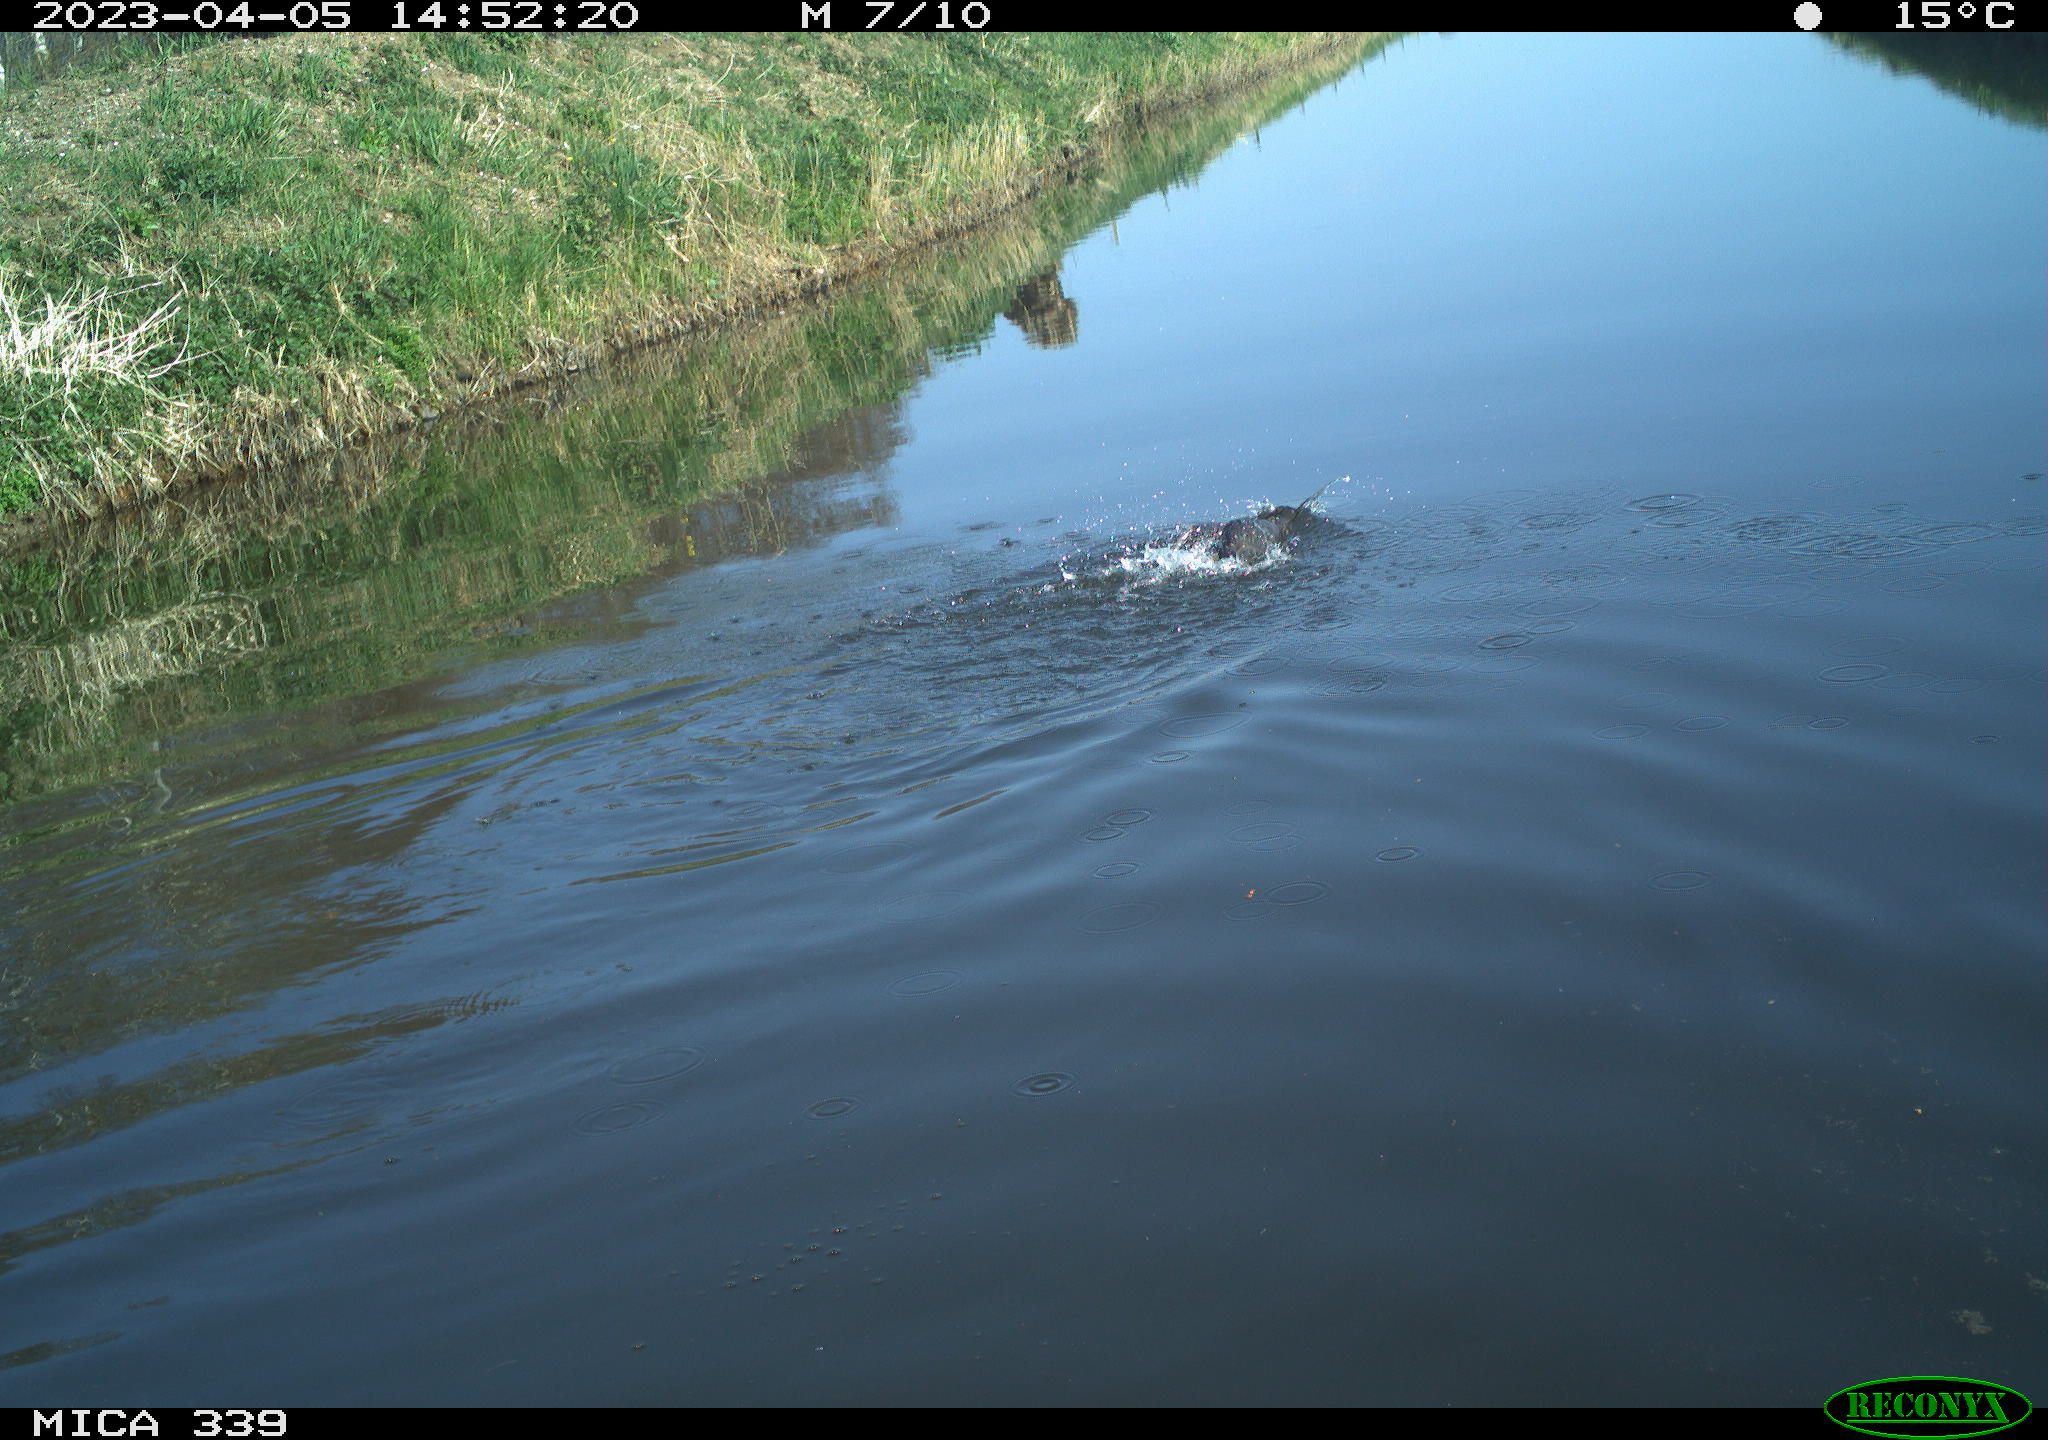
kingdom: Animalia
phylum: Chordata
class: Aves
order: Pelecaniformes
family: Ardeidae
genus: Ardea
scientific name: Ardea
